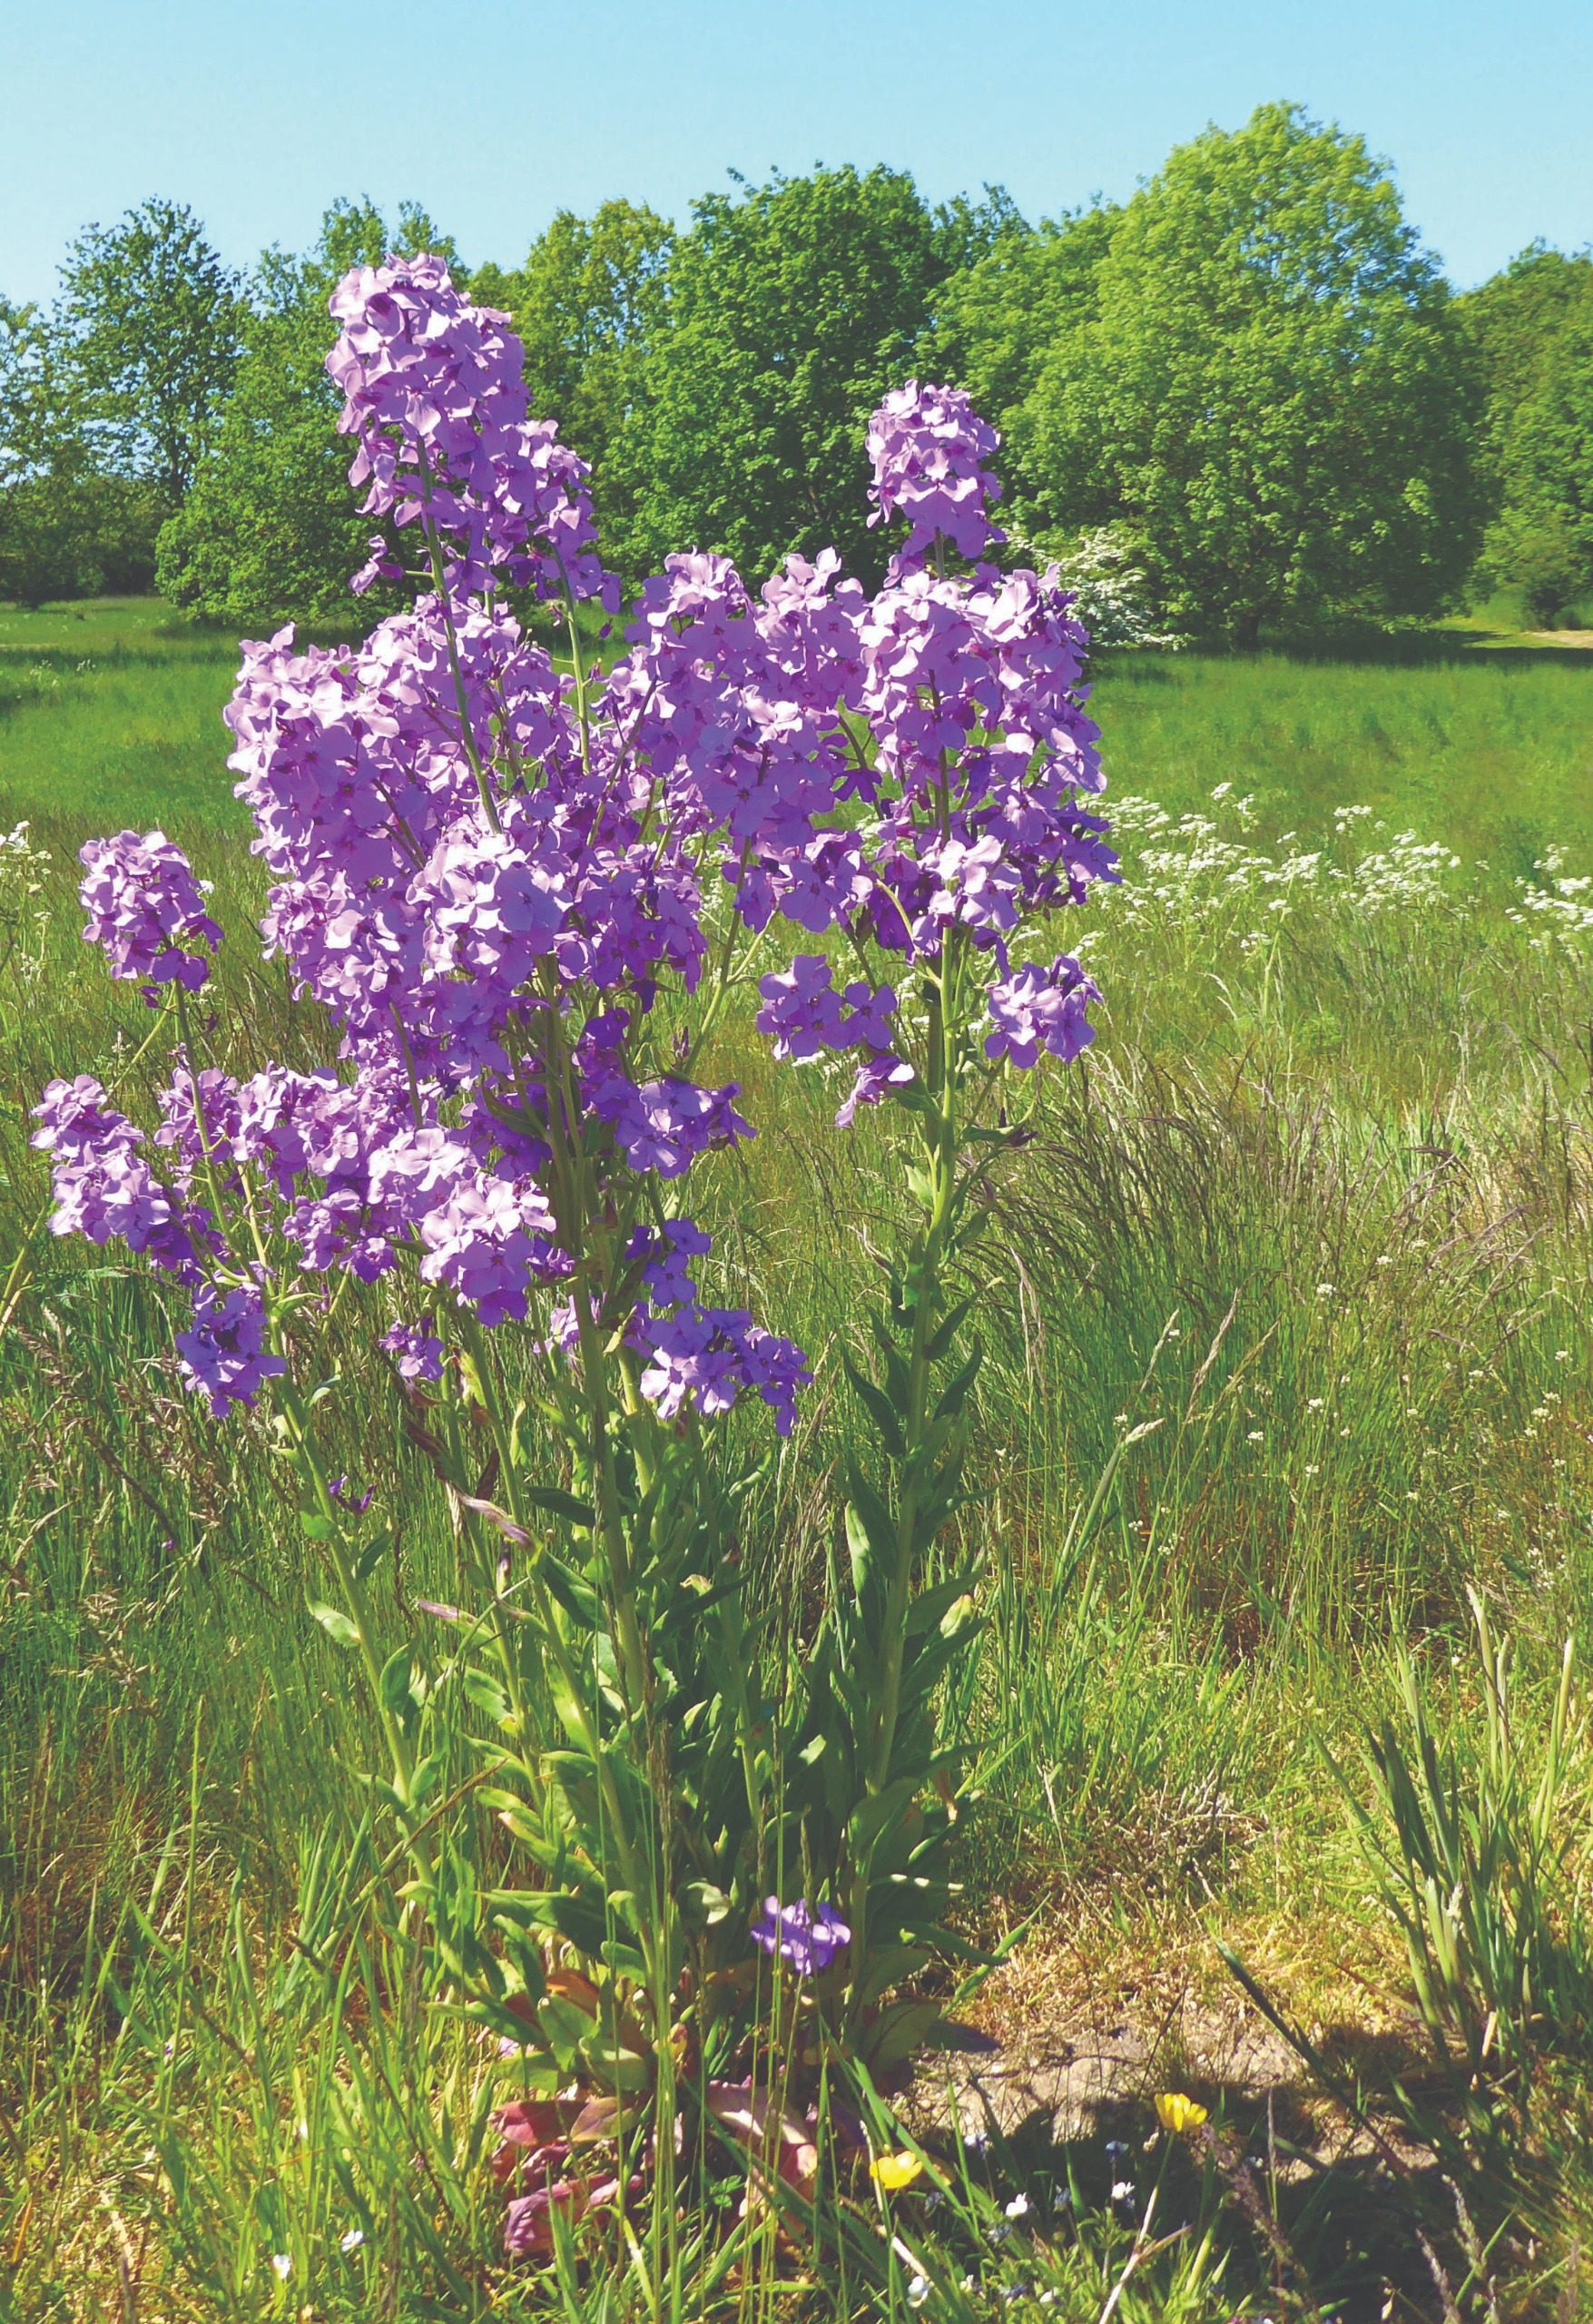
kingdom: Plantae
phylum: Tracheophyta
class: Magnoliopsida
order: Brassicales
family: Brassicaceae
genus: Hesperis
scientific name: Hesperis matronalis
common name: Aftenstjerne
